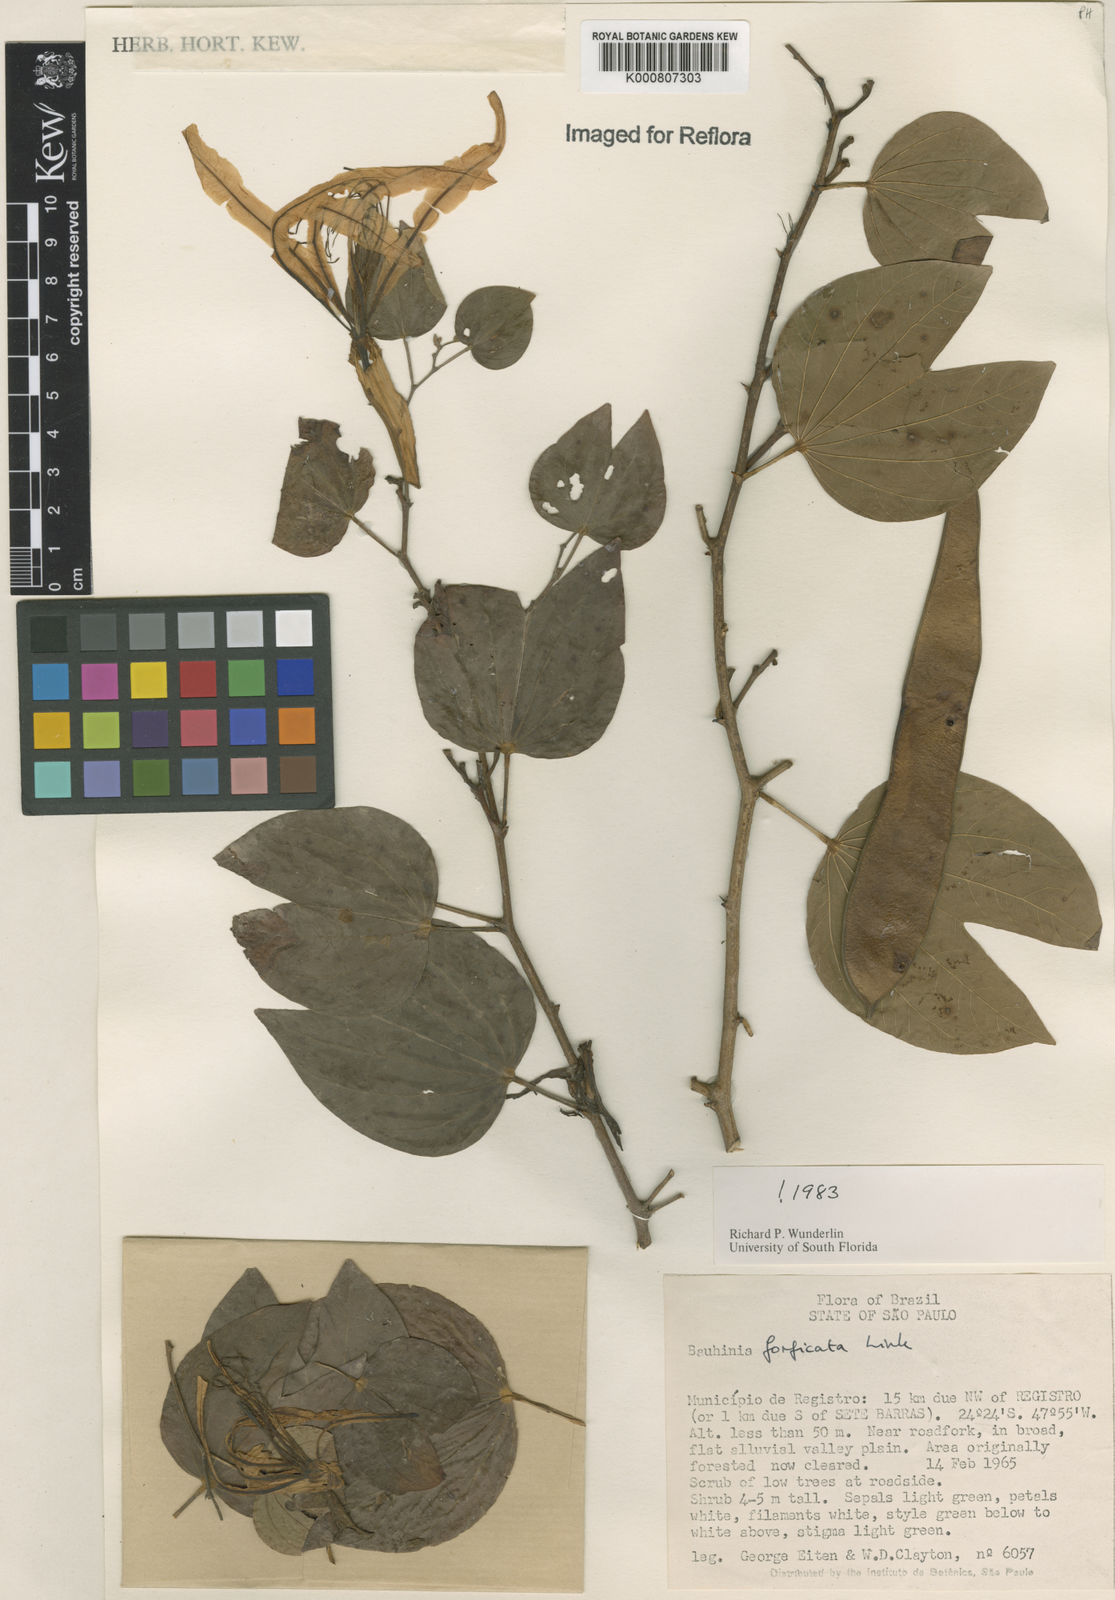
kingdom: Plantae
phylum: Tracheophyta
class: Magnoliopsida
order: Fabales
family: Fabaceae
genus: Bauhinia
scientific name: Bauhinia forficata
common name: Orchid tree
